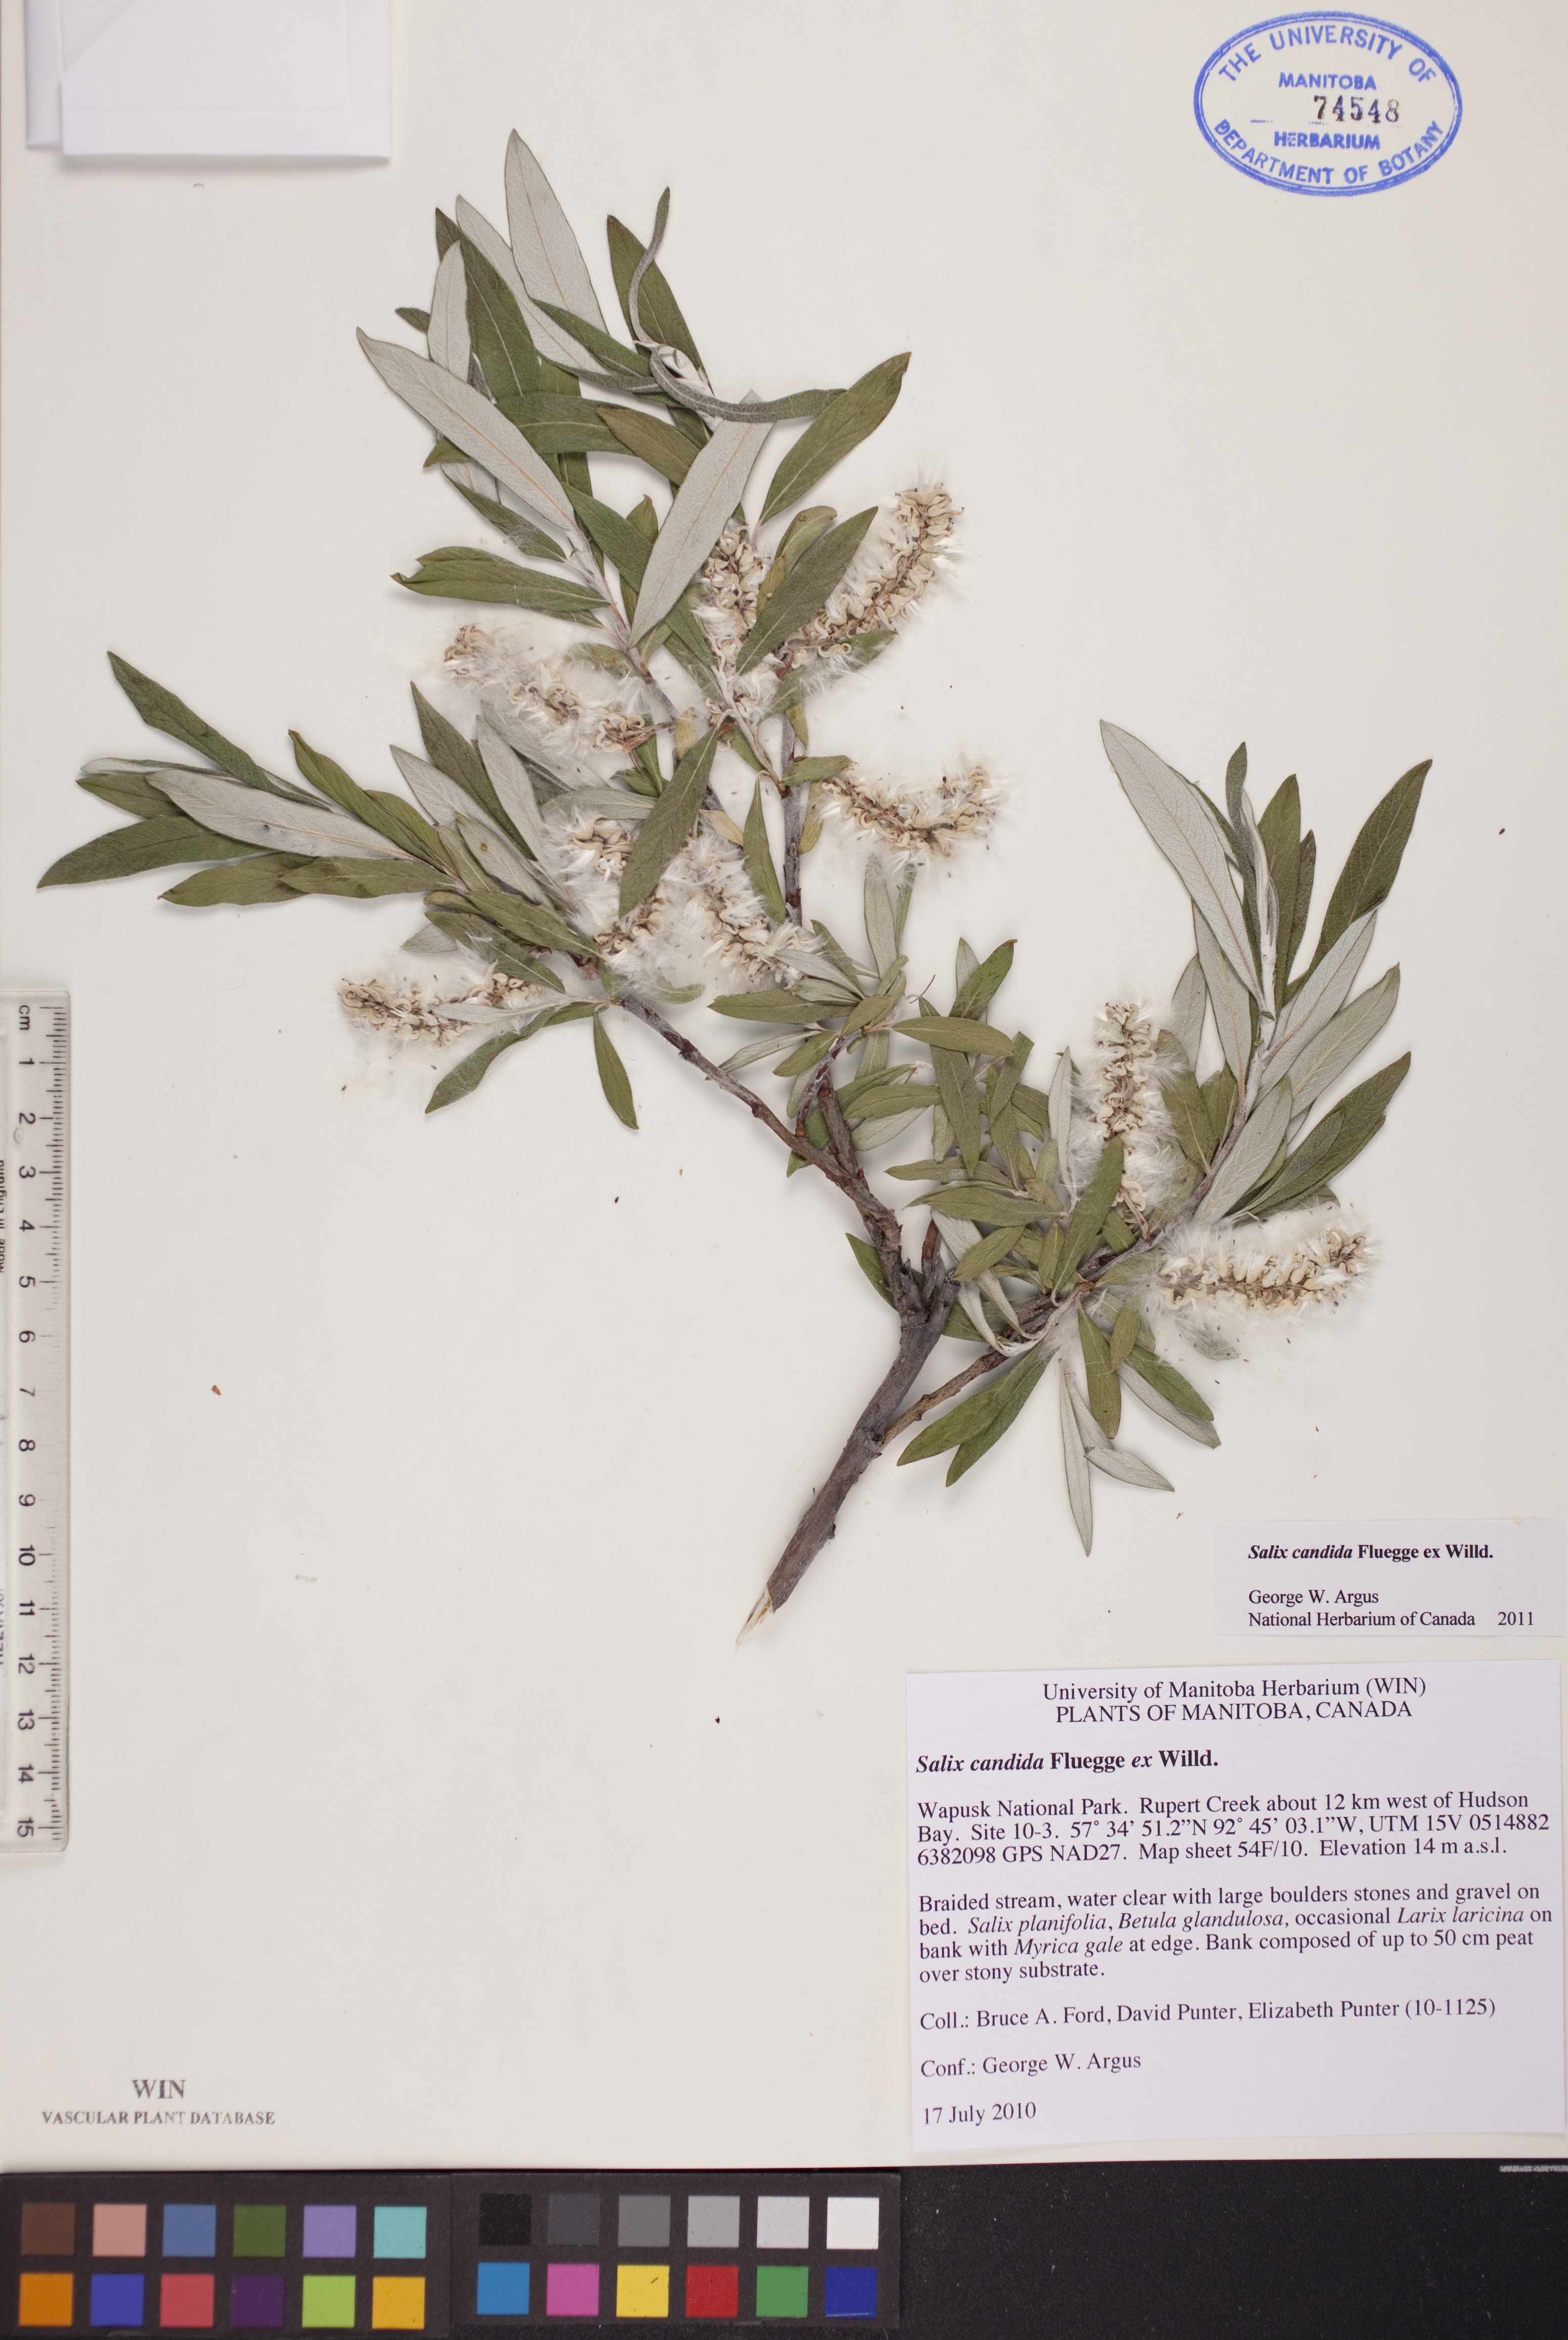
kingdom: Plantae
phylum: Tracheophyta
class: Magnoliopsida
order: Malpighiales
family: Salicaceae
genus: Salix
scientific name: Salix candida
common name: Hoary willow
